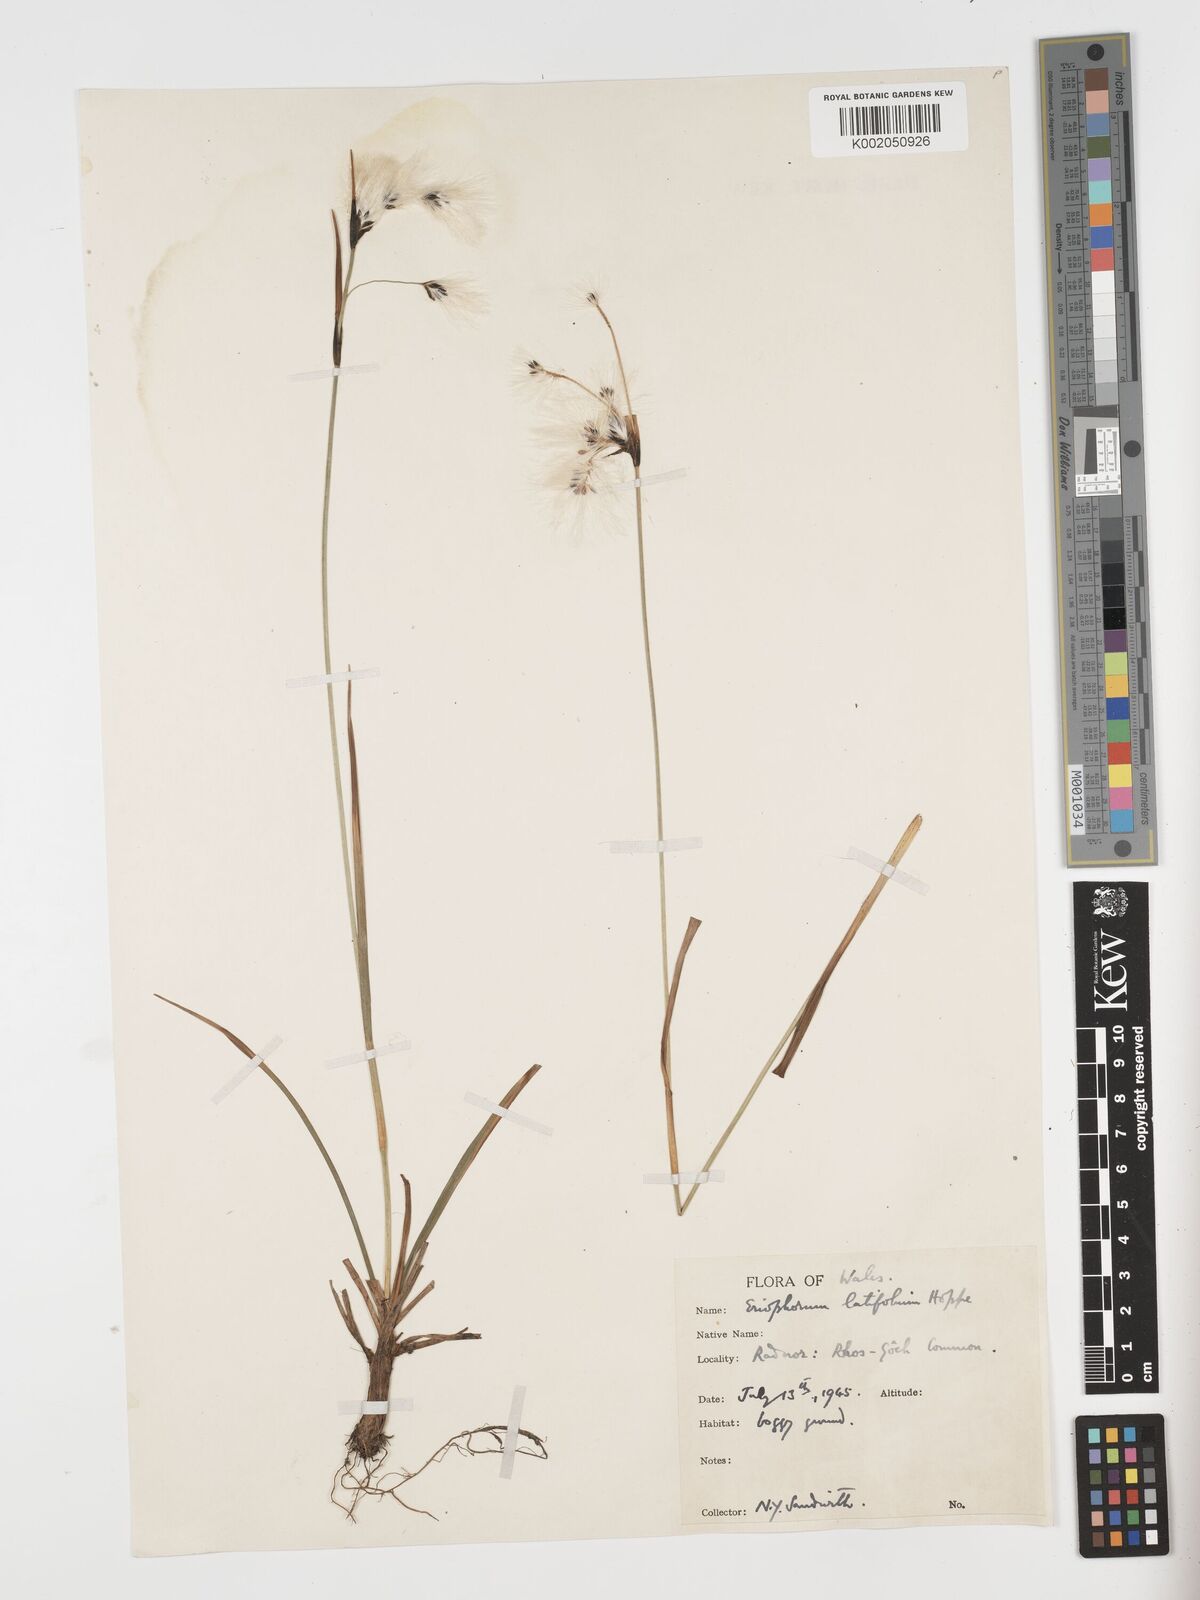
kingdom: Plantae
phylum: Tracheophyta
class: Liliopsida
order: Poales
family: Cyperaceae
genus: Eriophorum
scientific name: Eriophorum angustifolium
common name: Common cottongrass
